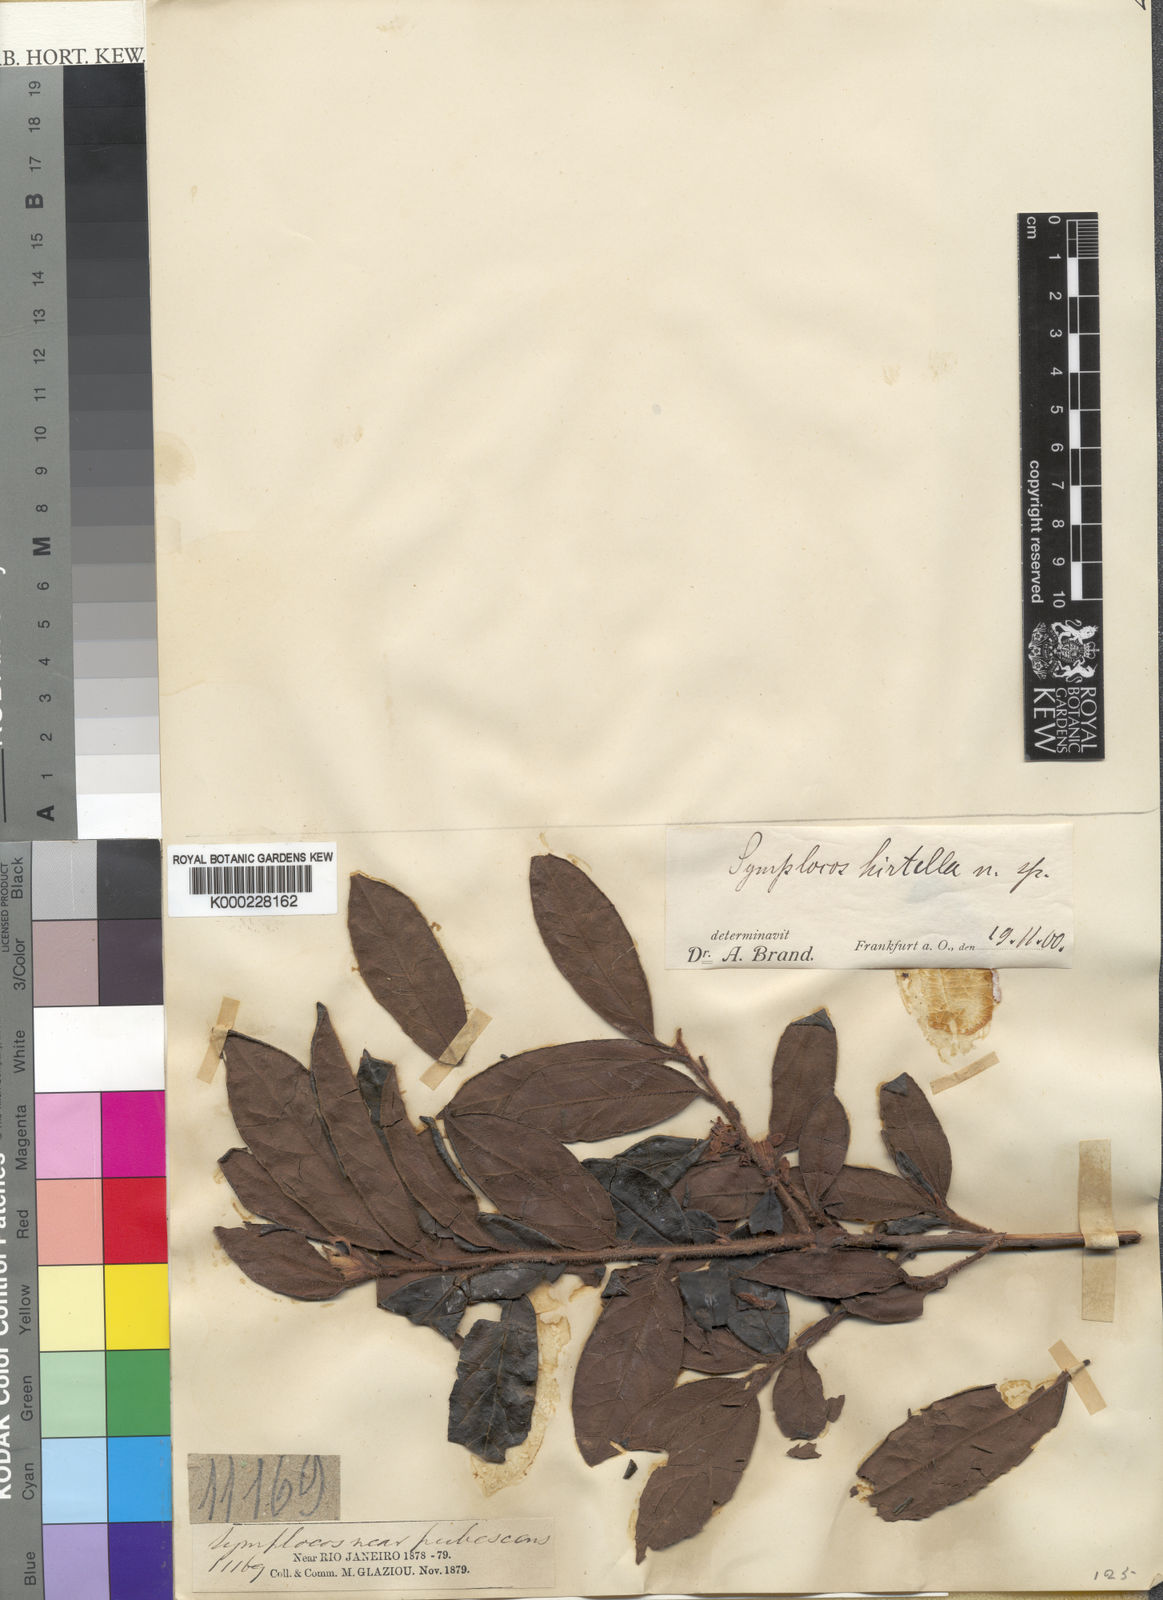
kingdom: Plantae
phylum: Tracheophyta
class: Magnoliopsida
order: Ericales
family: Symplocaceae
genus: Symplocos
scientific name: Symplocos trachycarpos
